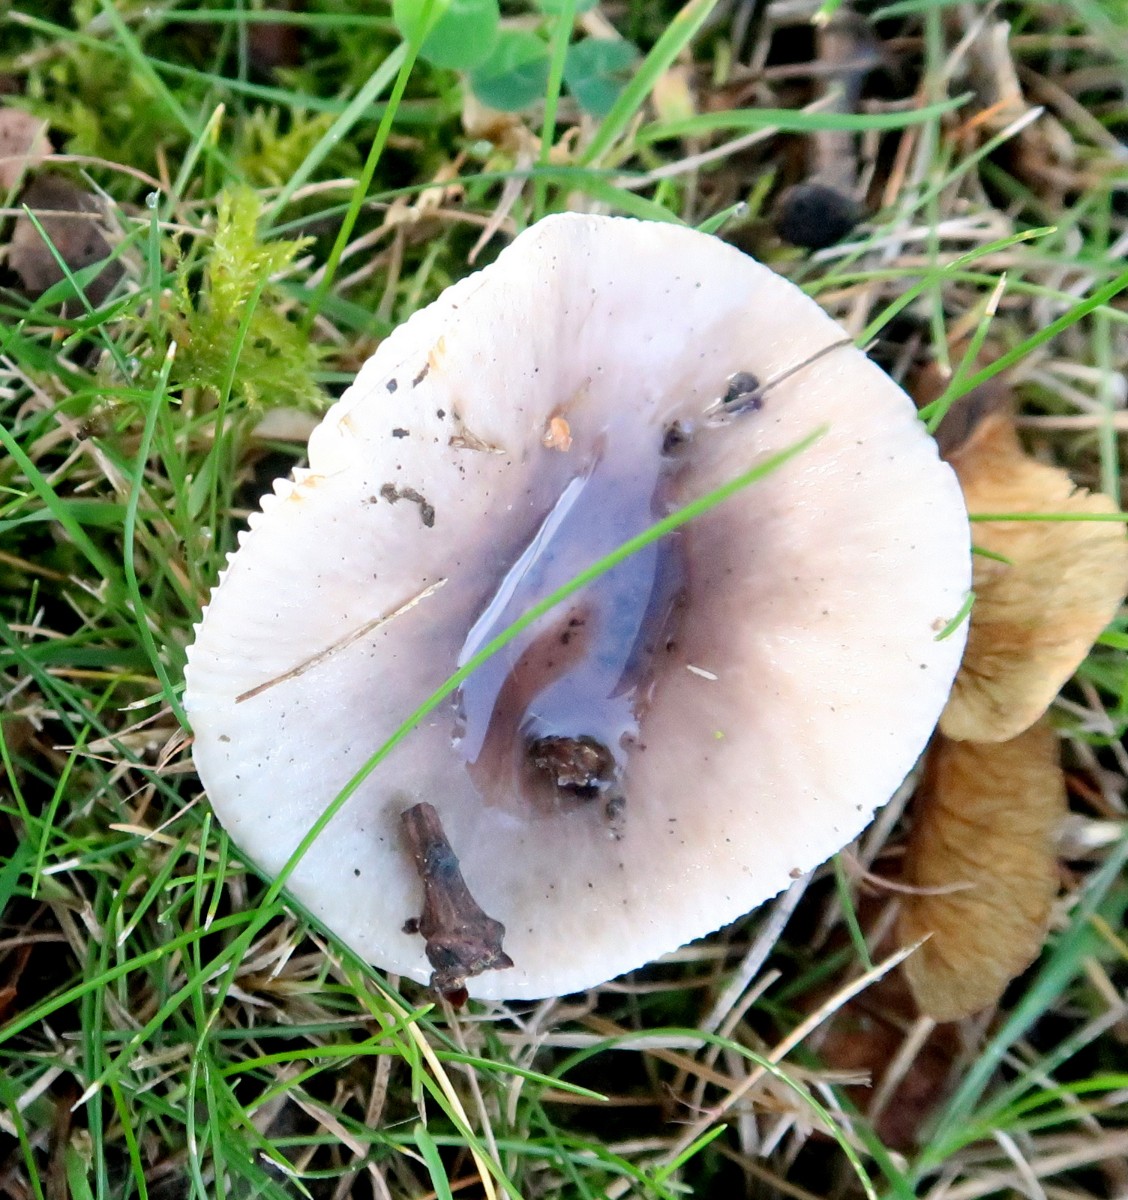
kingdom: Fungi
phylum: Basidiomycota
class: Agaricomycetes
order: Russulales
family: Russulaceae
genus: Russula
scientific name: Russula fragilis
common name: savbladet skørhat
